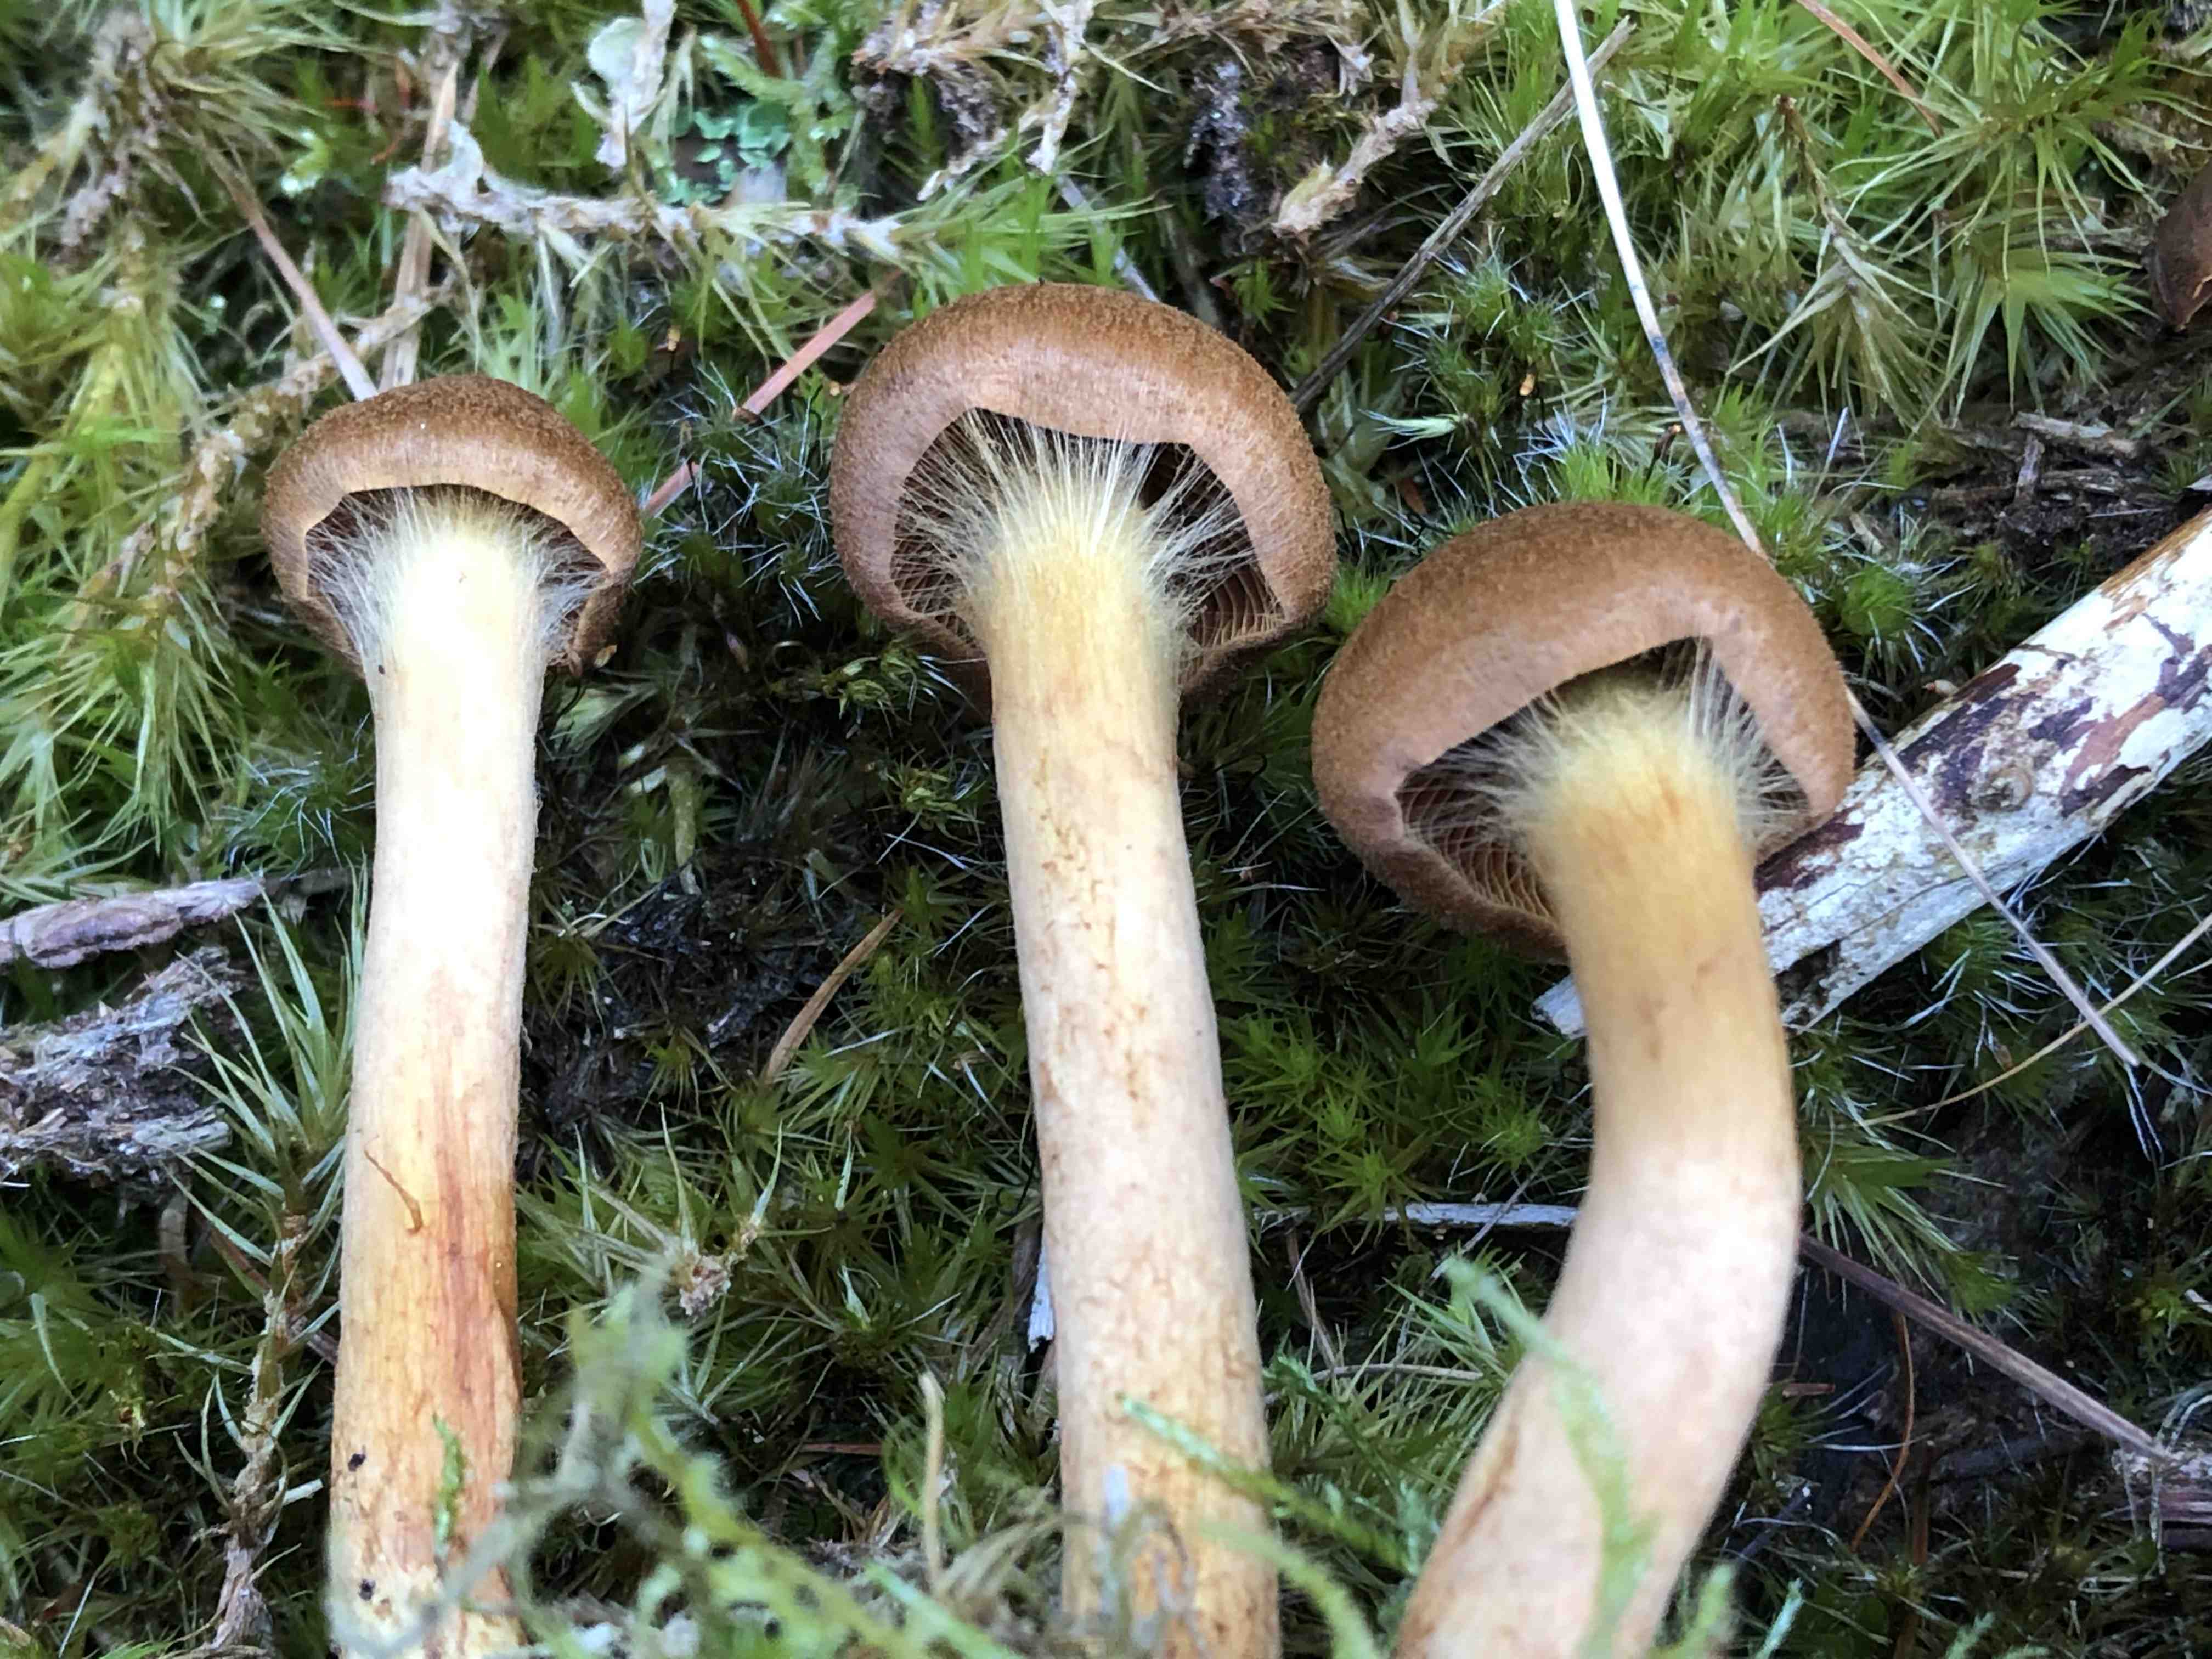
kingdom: Fungi
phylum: Basidiomycota
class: Agaricomycetes
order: Agaricales
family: Cortinariaceae
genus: Cortinarius
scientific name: Cortinarius
